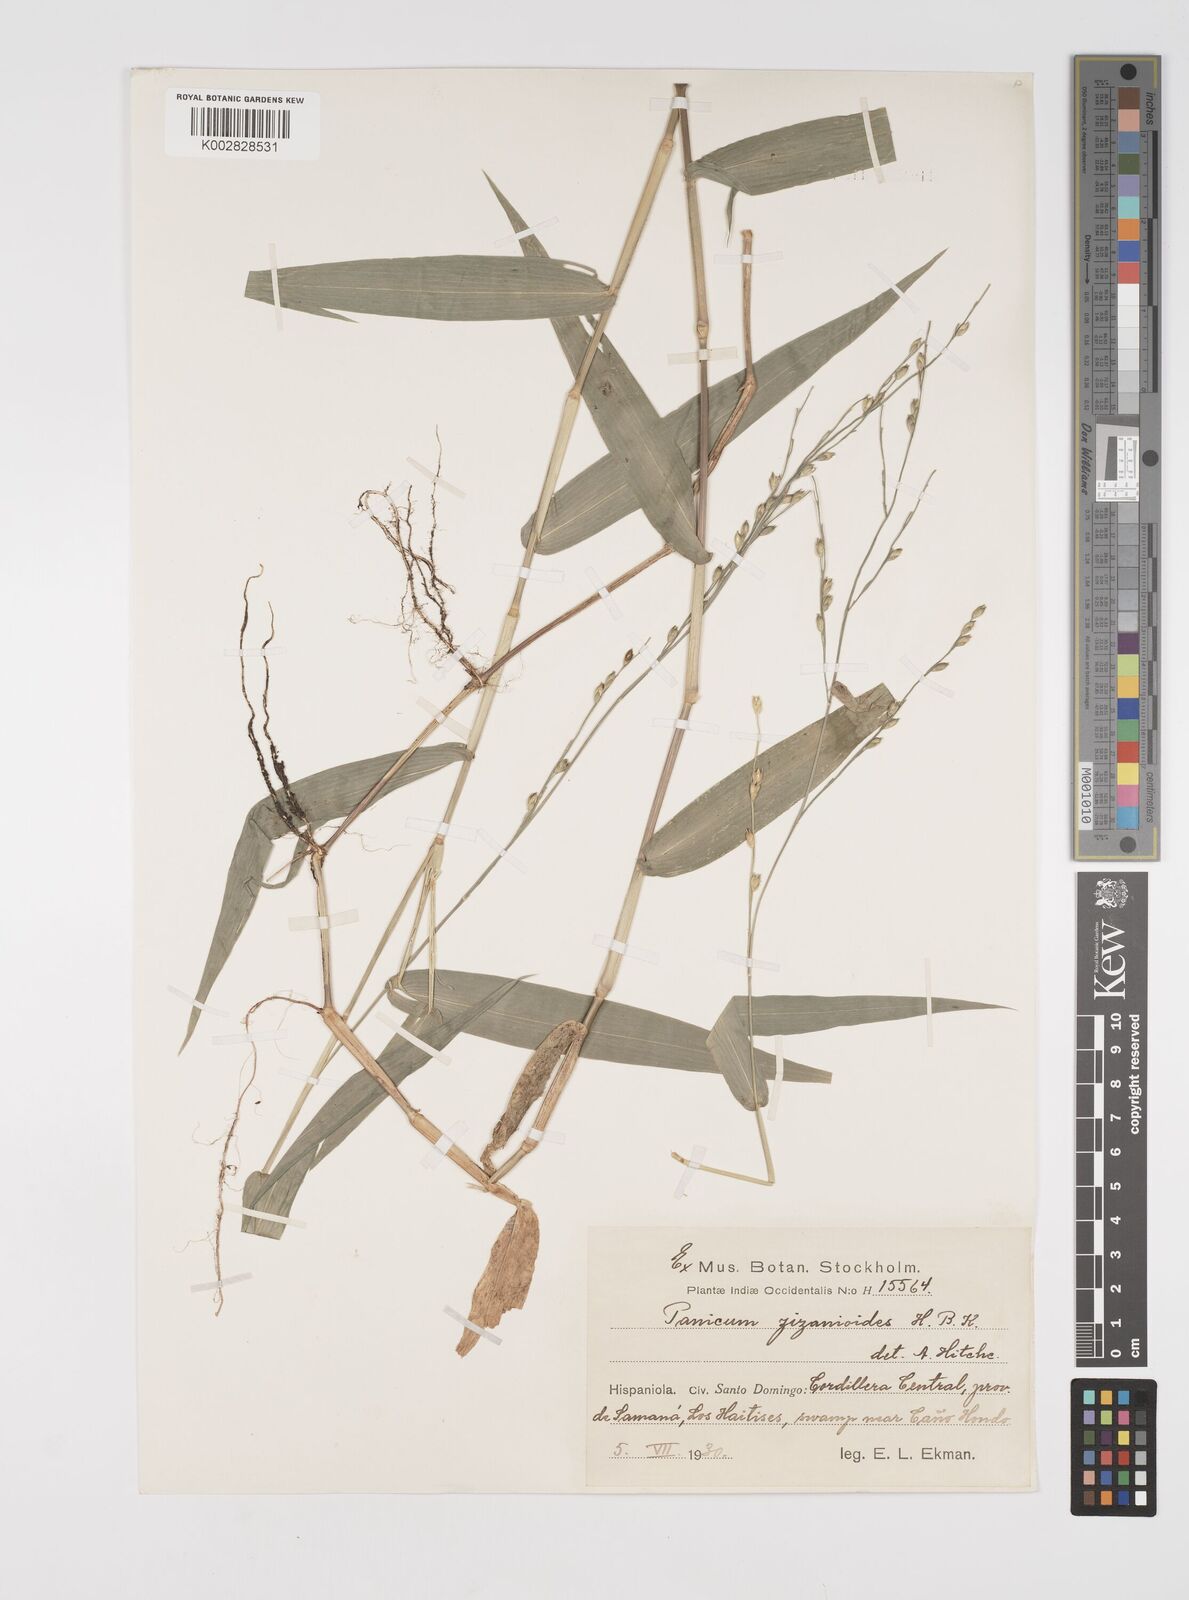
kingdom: Plantae
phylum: Tracheophyta
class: Liliopsida
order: Poales
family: Poaceae
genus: Acroceras
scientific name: Acroceras zizanioides
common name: Oat grass
